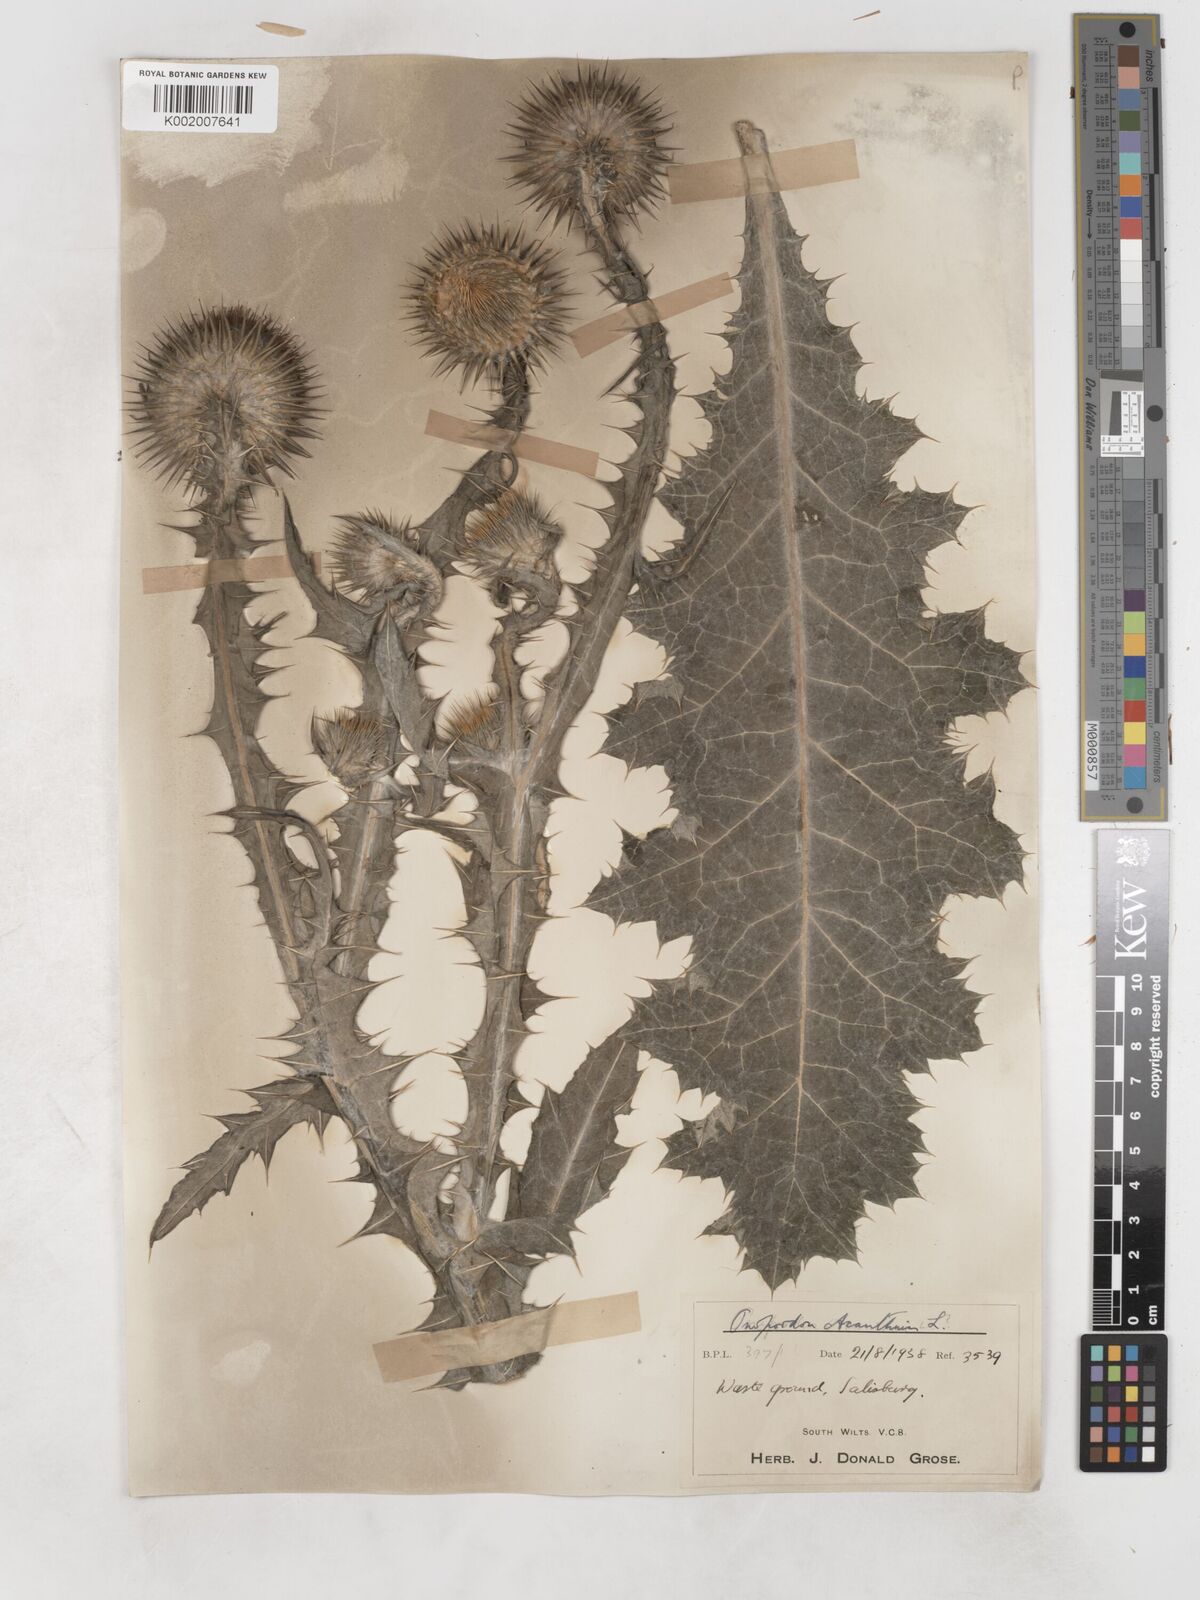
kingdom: Plantae
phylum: Tracheophyta
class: Magnoliopsida
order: Asterales
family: Asteraceae
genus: Onopordum
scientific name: Onopordum acanthium
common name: Scotch thistle
